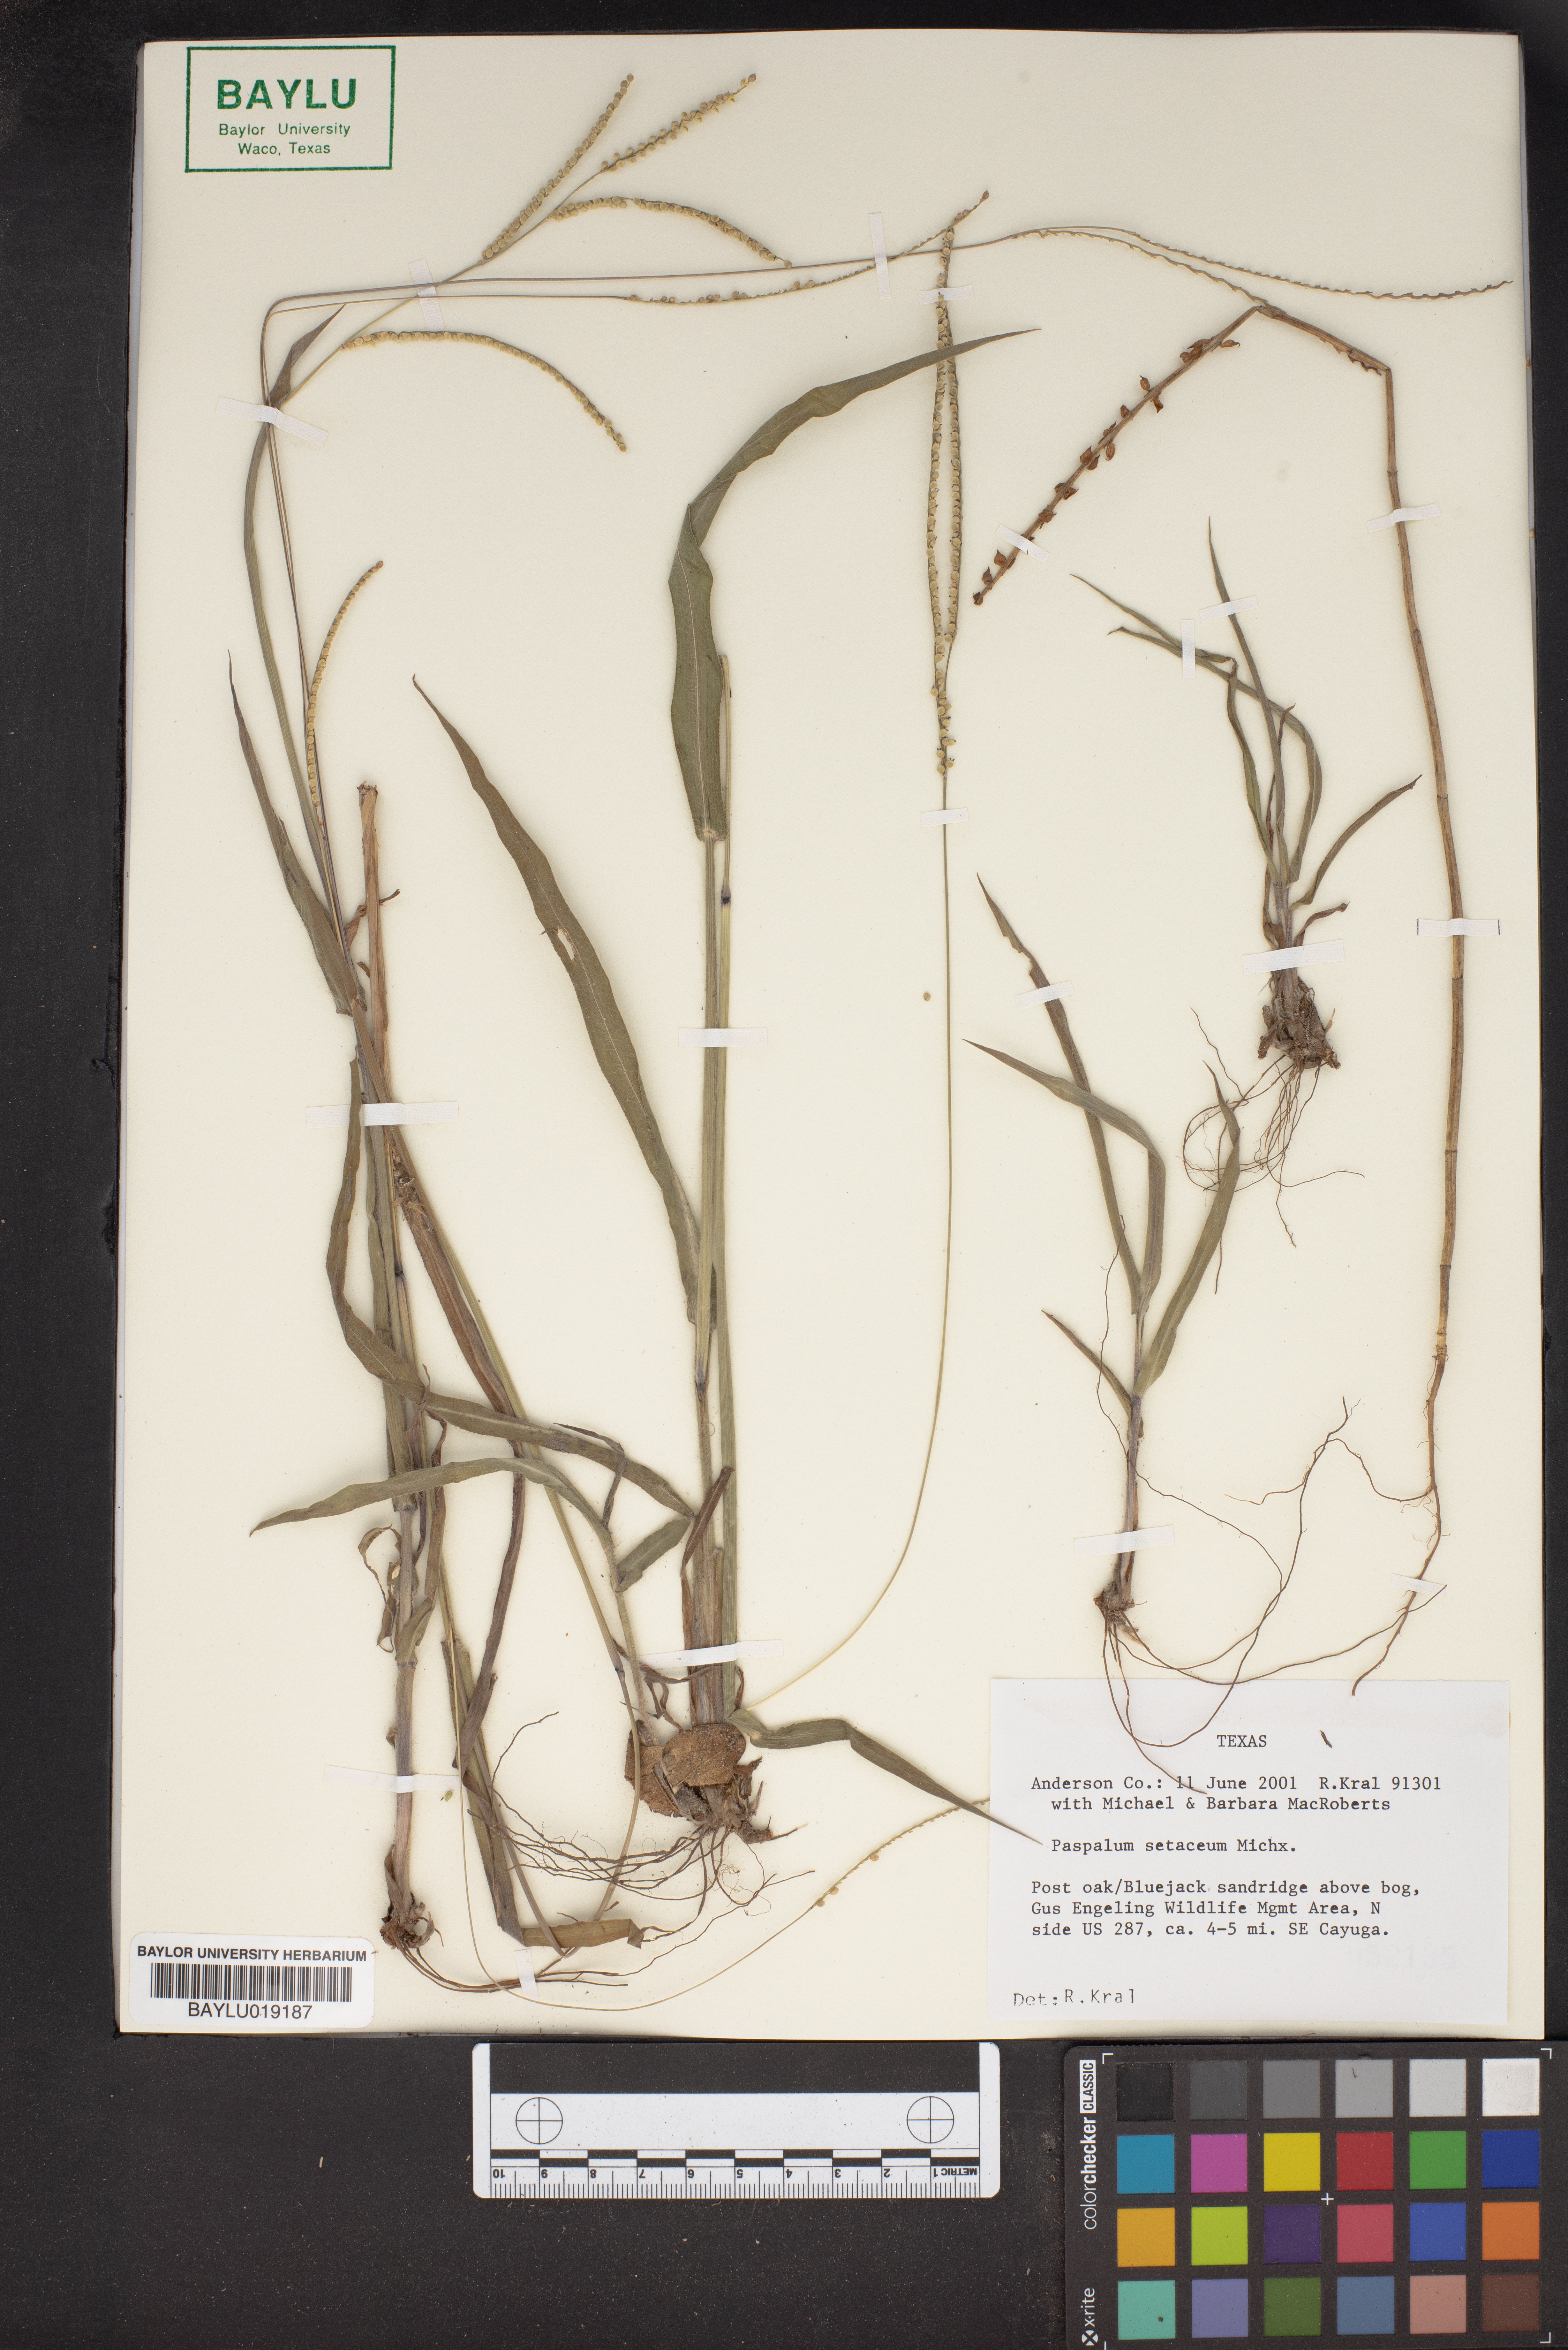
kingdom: Plantae
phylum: Tracheophyta
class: Liliopsida
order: Poales
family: Poaceae
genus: Paspalum
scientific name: Paspalum setaceum
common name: Slender paspalum
